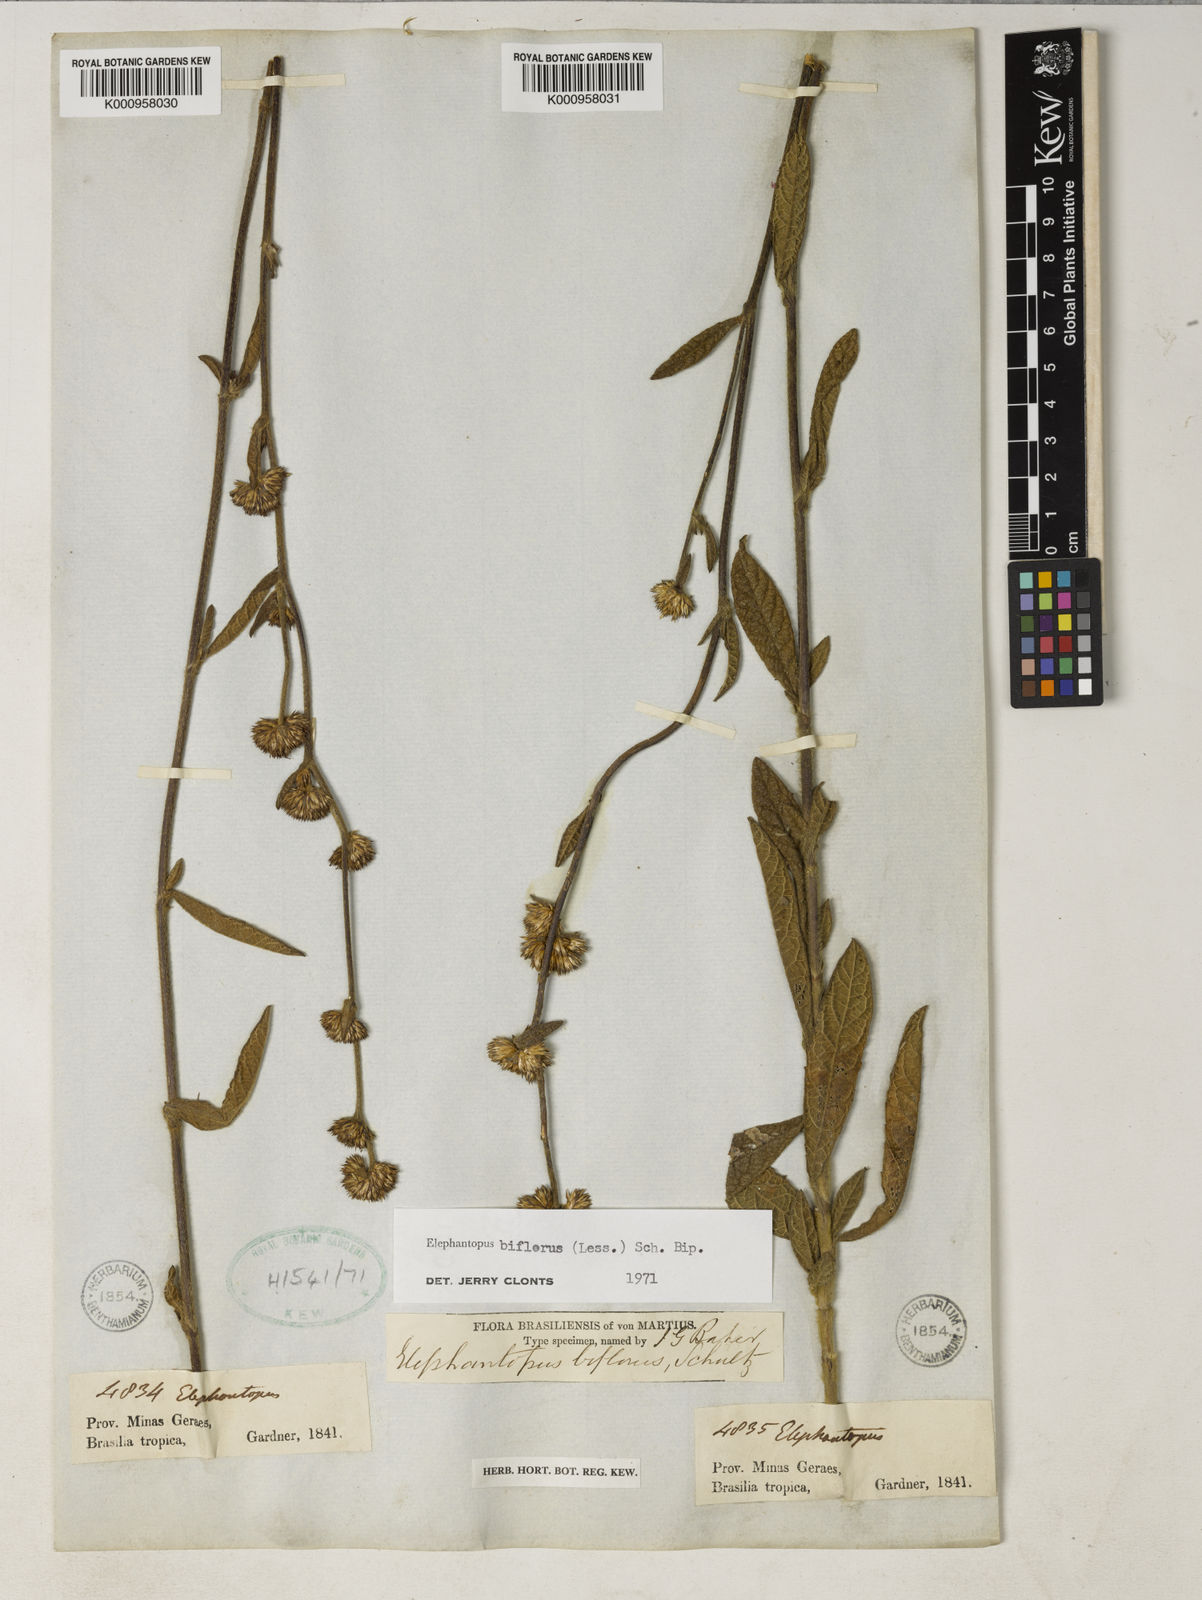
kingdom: Plantae
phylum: Tracheophyta
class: Magnoliopsida
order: Asterales
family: Asteraceae
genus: Elephantopus
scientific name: Elephantopus biflorus
